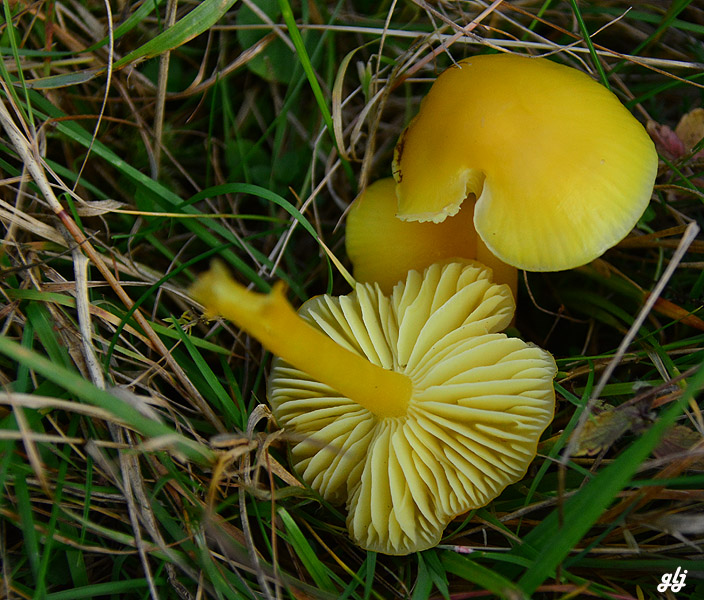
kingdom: Fungi
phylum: Basidiomycota
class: Agaricomycetes
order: Agaricales
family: Hygrophoraceae
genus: Hygrocybe
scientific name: Hygrocybe ceracea
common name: voksgul vokshat
